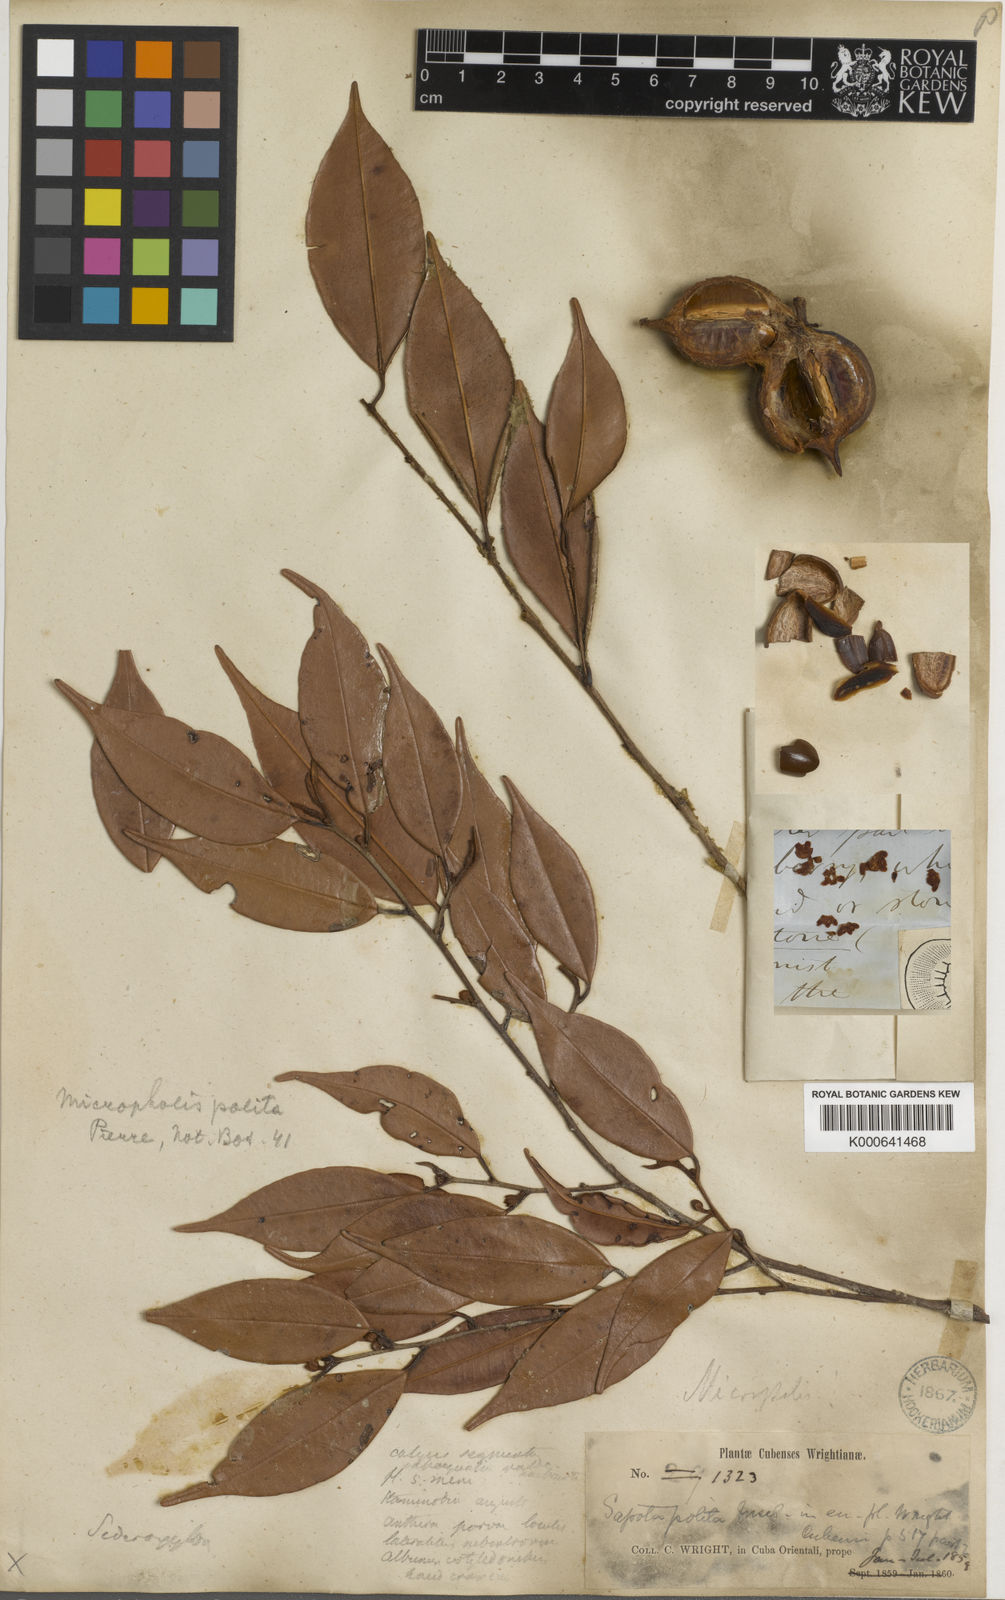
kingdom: Plantae
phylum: Tracheophyta
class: Magnoliopsida
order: Ericales
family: Sapotaceae
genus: Micropholis
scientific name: Micropholis polita
